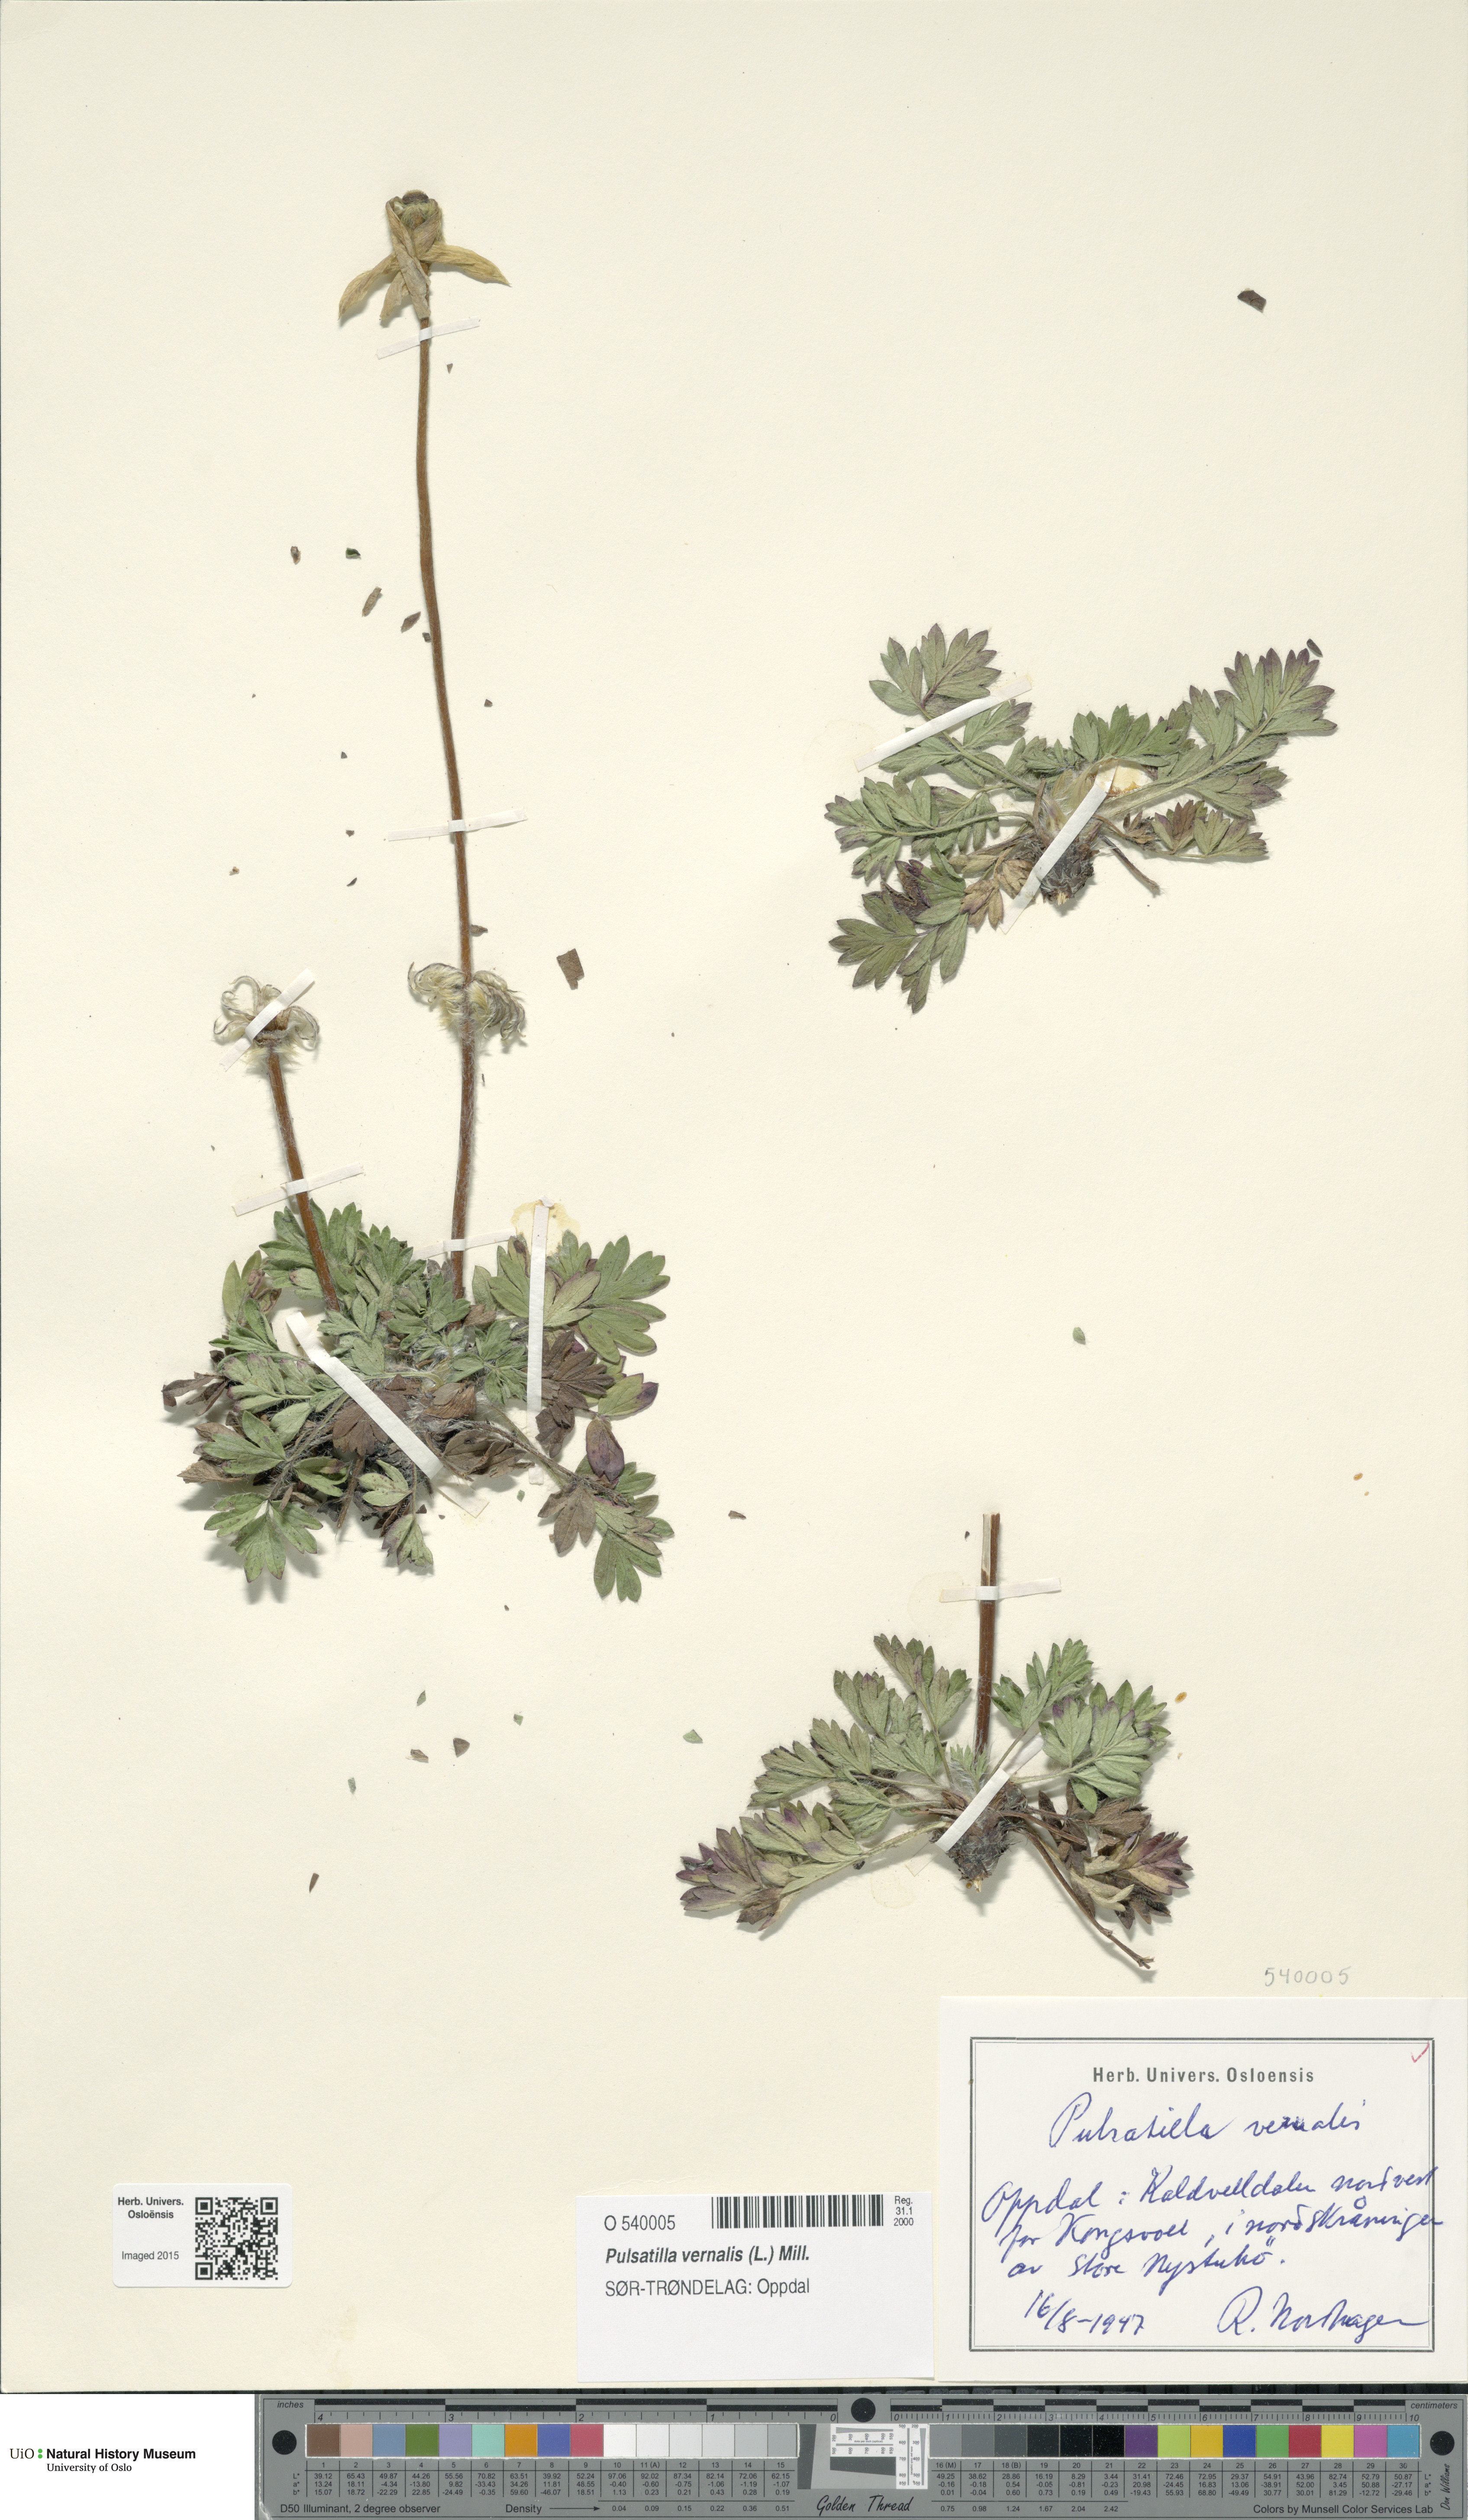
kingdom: Plantae
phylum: Tracheophyta
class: Magnoliopsida
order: Ranunculales
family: Ranunculaceae
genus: Pulsatilla
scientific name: Pulsatilla vernalis
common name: Spring pasque flower
